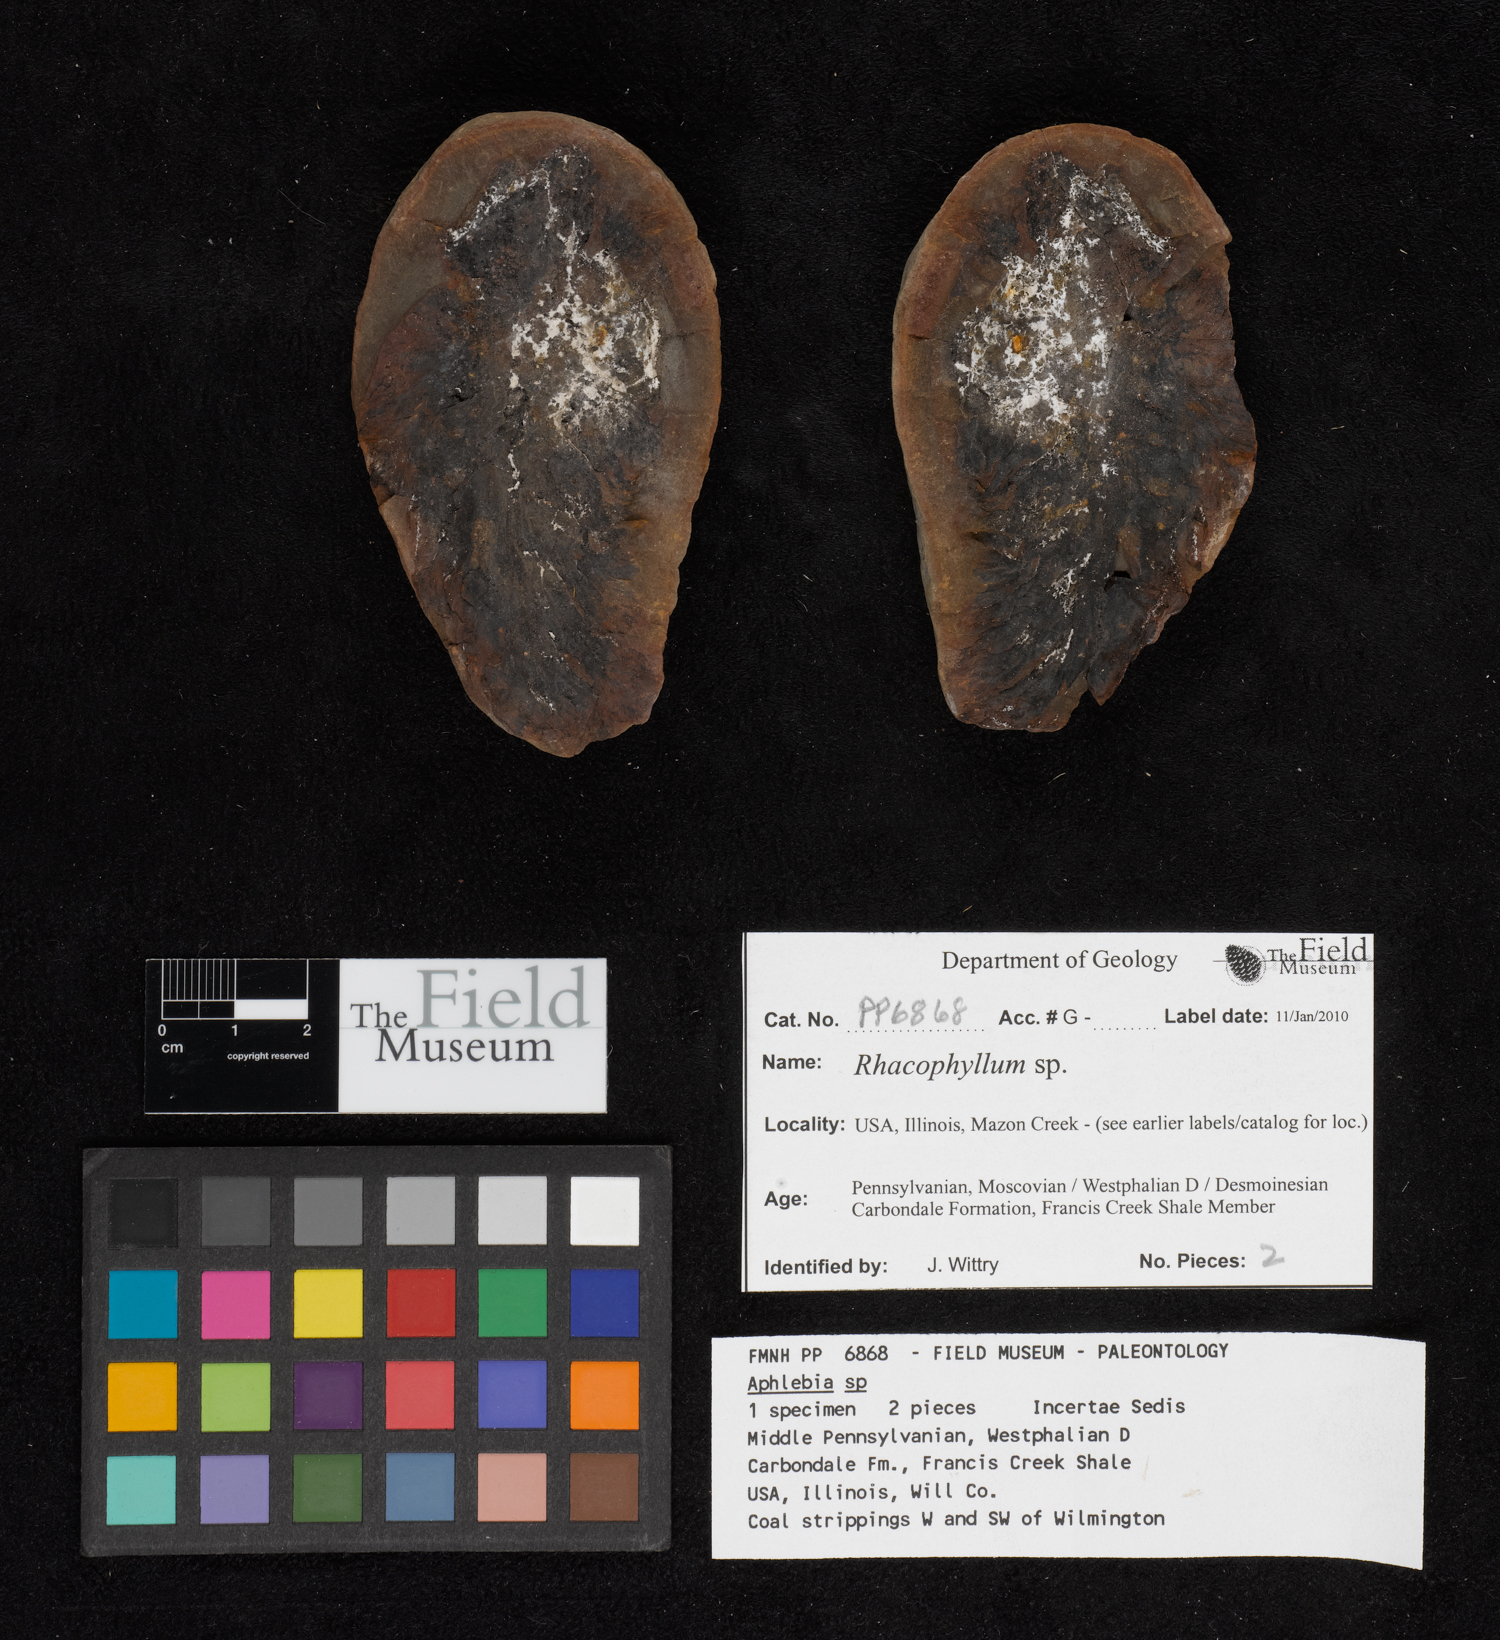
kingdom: Plantae
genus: Rhacophyllum
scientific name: Rhacophyllum
